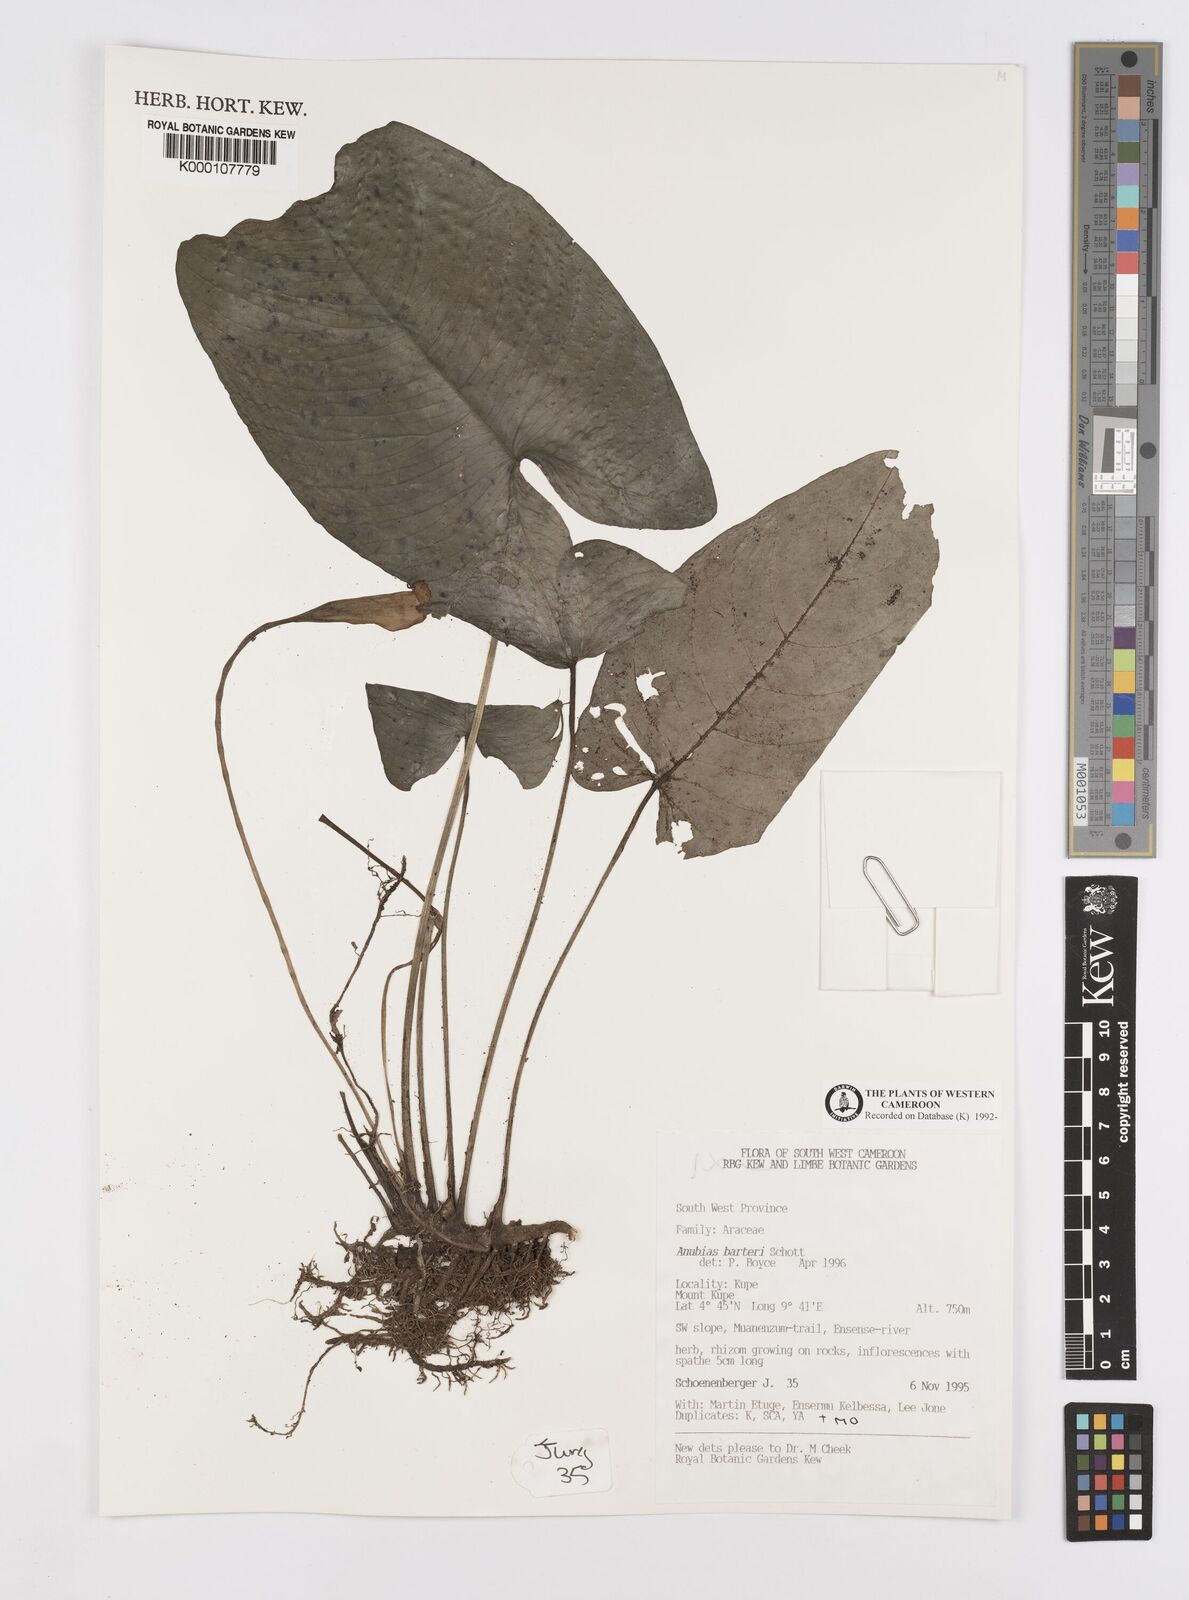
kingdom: Plantae
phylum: Tracheophyta
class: Liliopsida
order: Alismatales
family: Araceae
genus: Anubias
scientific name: Anubias barteri
